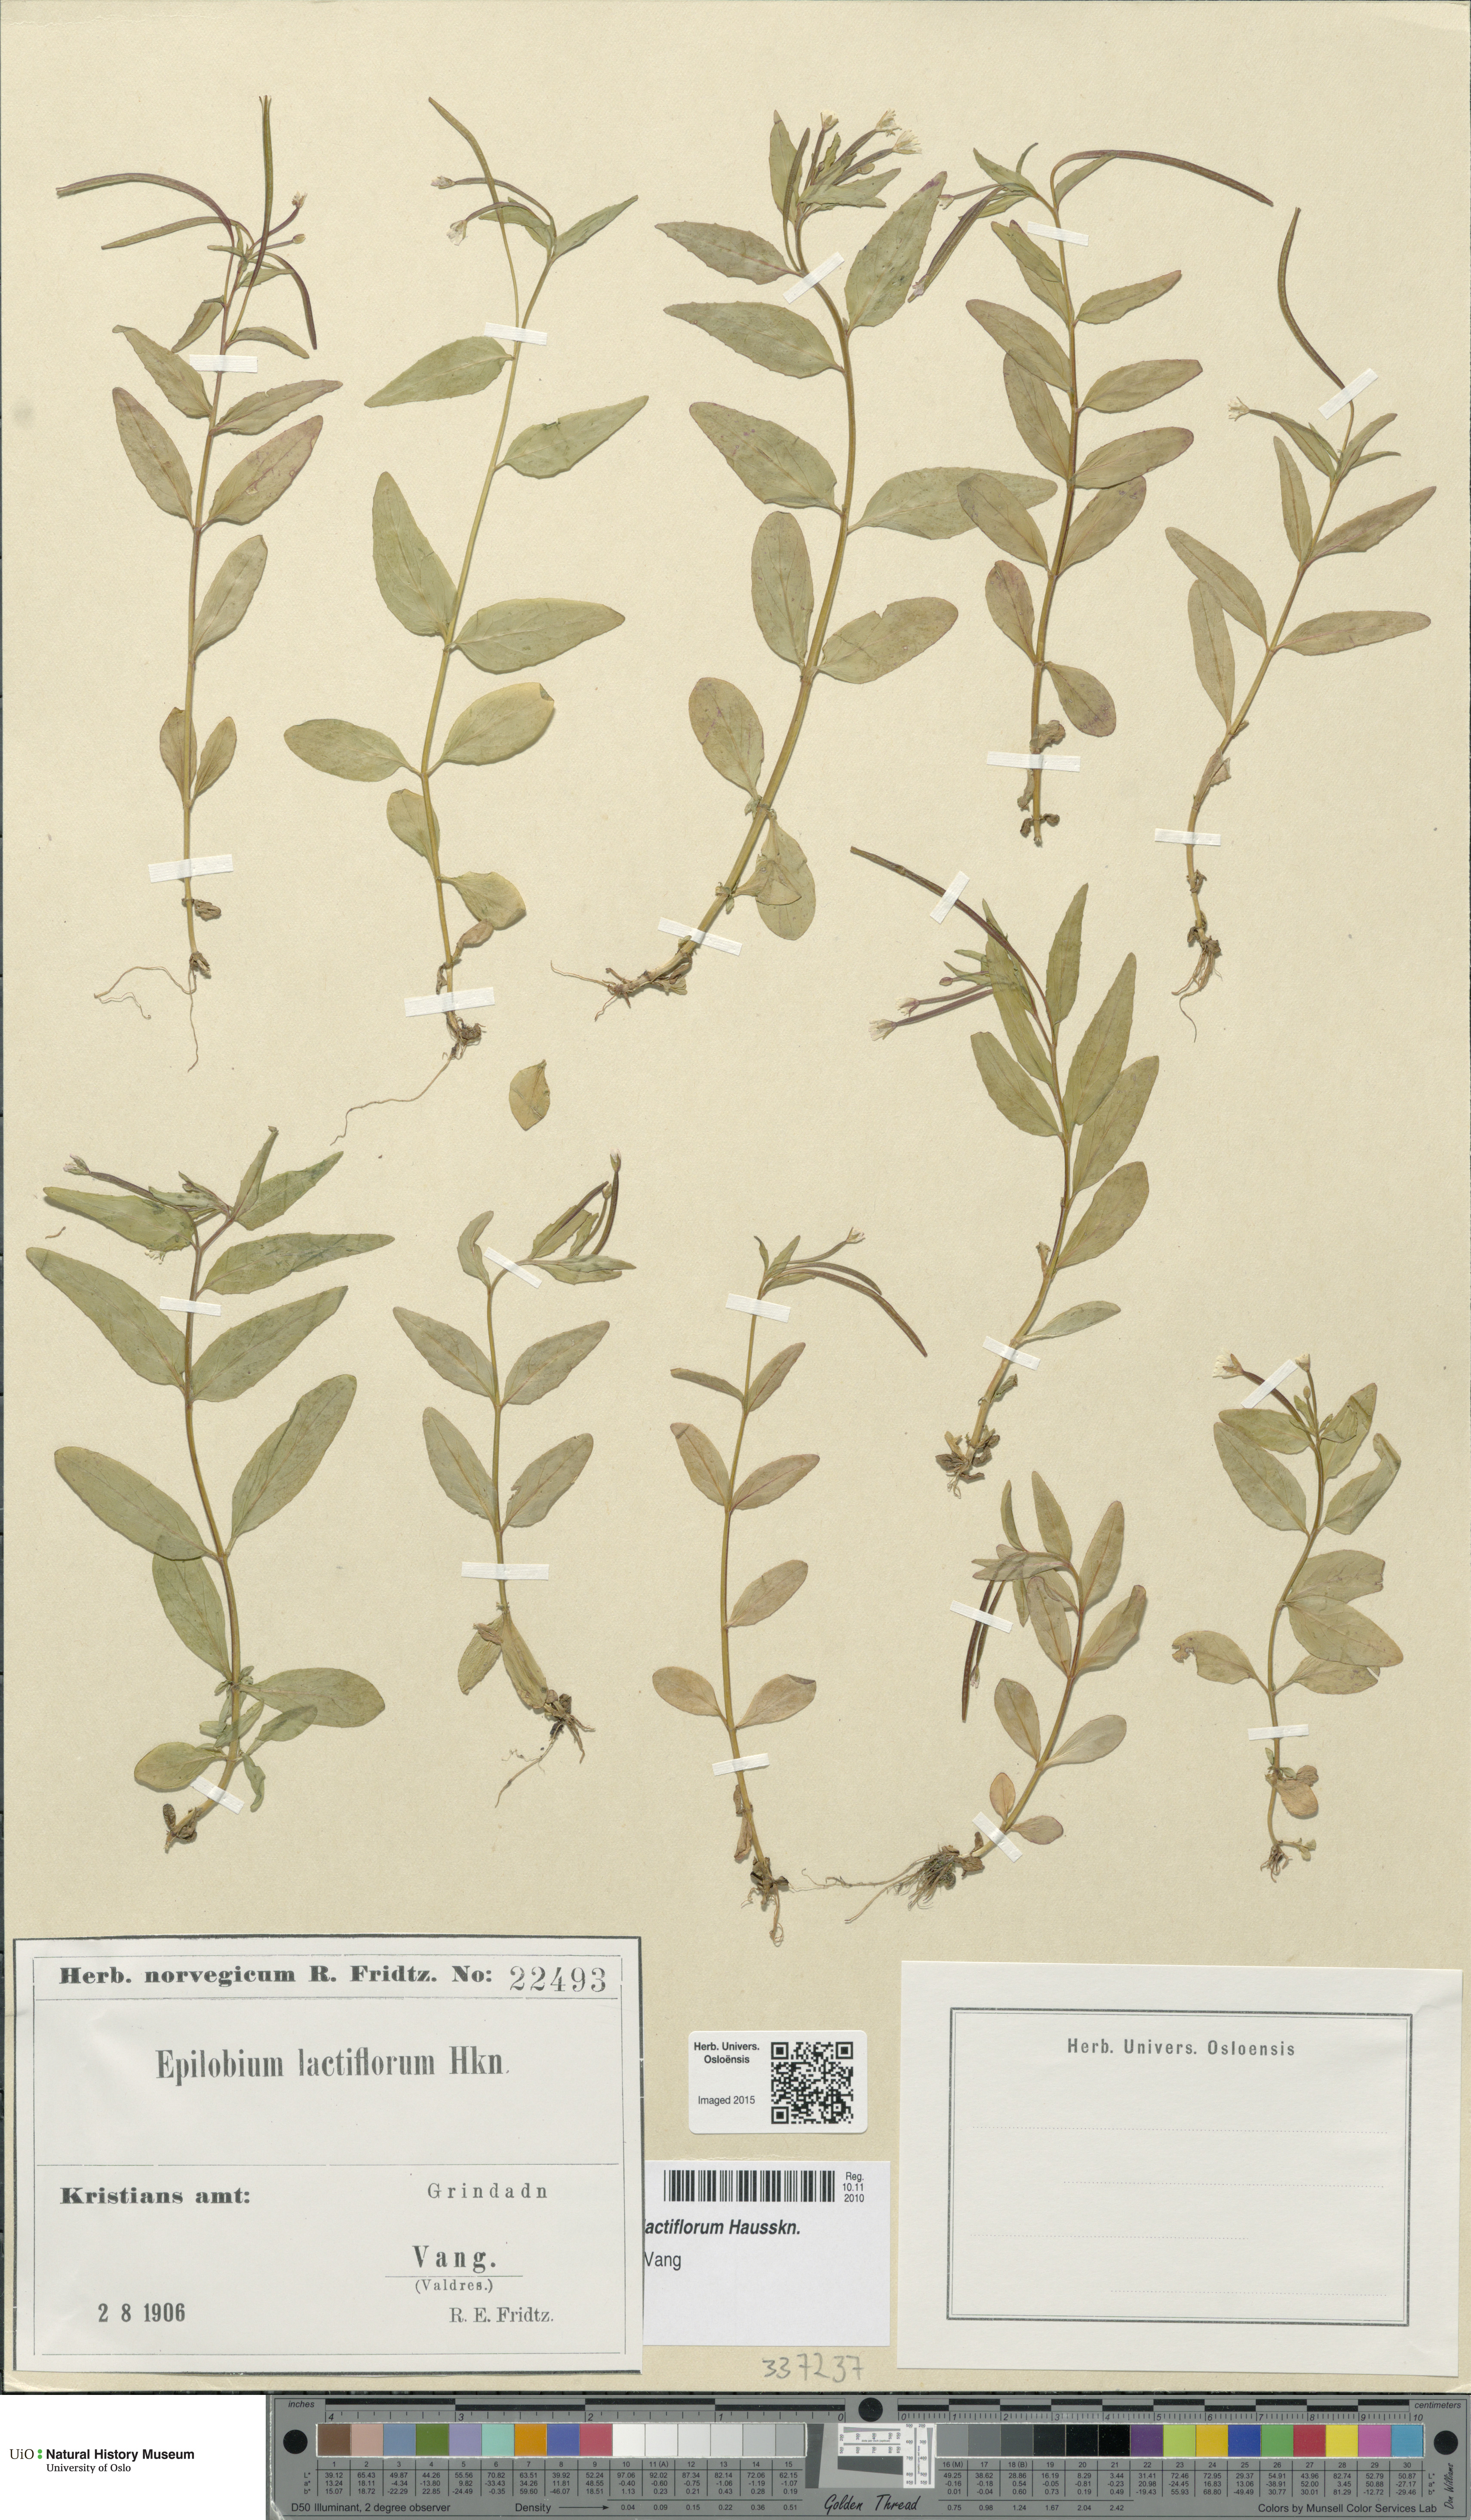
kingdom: Plantae
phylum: Tracheophyta
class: Magnoliopsida
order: Myrtales
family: Onagraceae
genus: Epilobium
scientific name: Epilobium lactiflorum
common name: Milkflower willowherb
